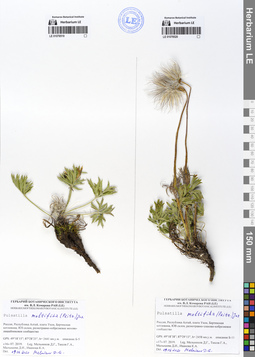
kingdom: Plantae
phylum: Tracheophyta
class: Magnoliopsida
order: Ranunculales
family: Ranunculaceae
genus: Pulsatilla
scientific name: Pulsatilla patens
